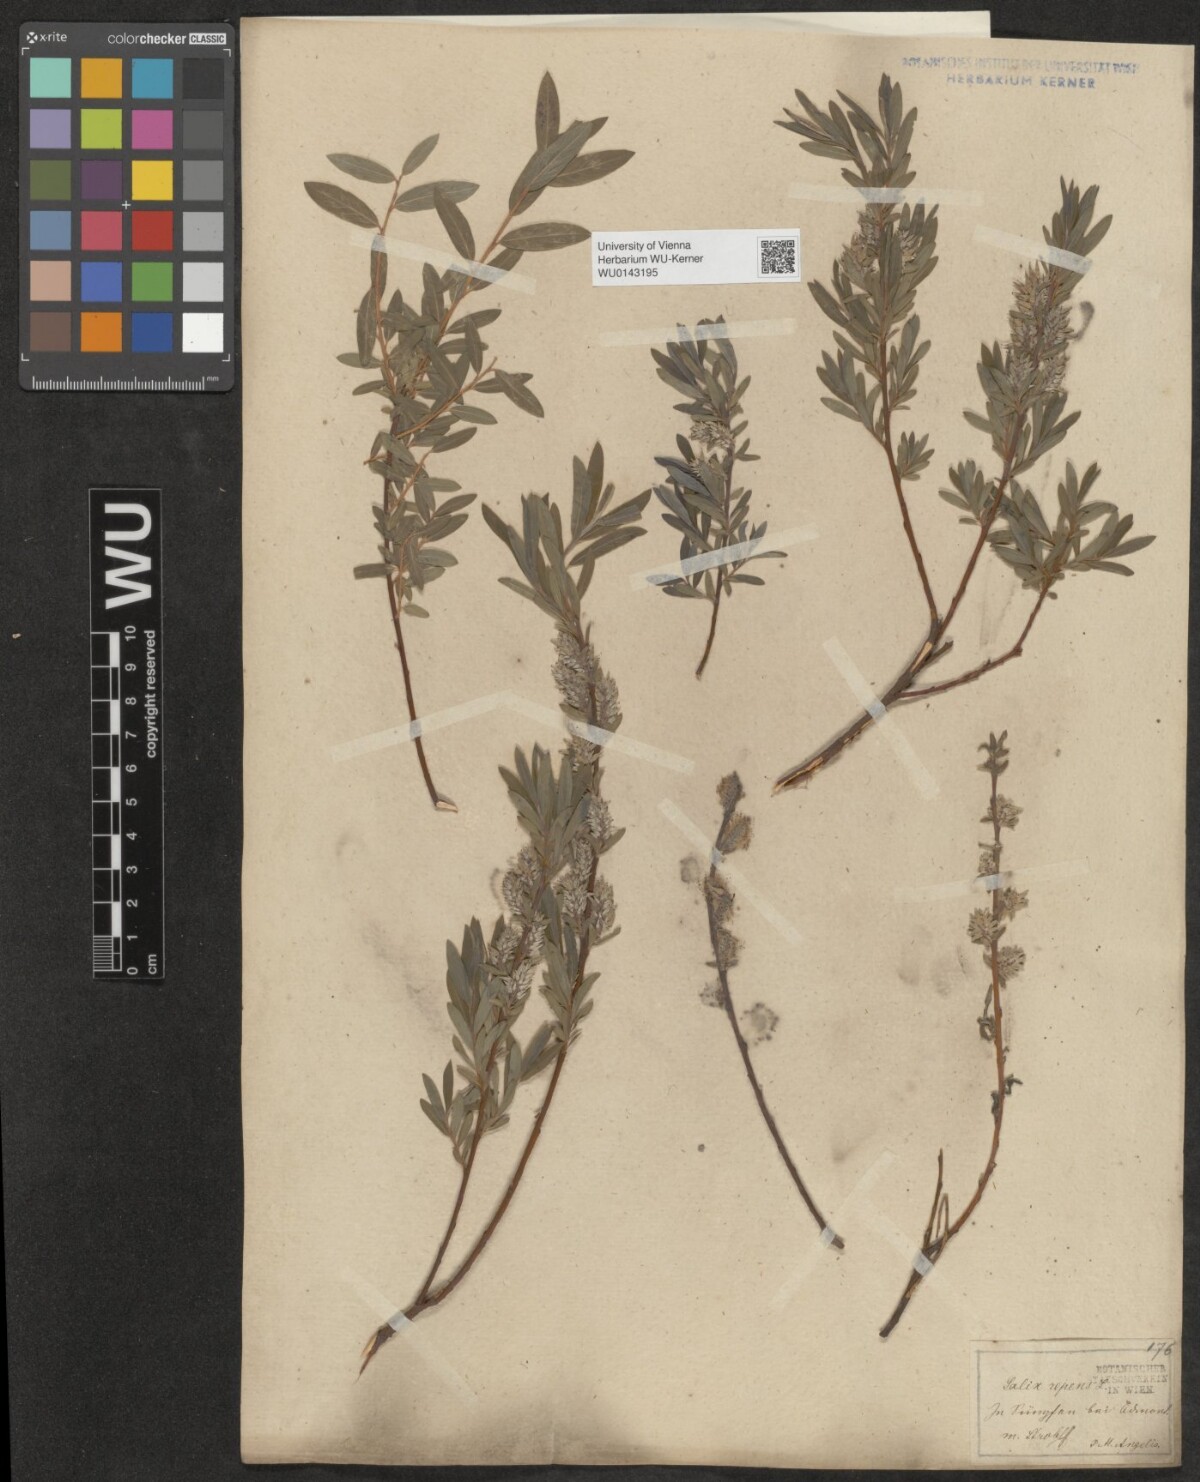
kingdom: Plantae
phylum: Tracheophyta
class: Magnoliopsida
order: Malpighiales
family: Salicaceae
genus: Salix
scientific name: Salix repens
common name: Creeping willow
